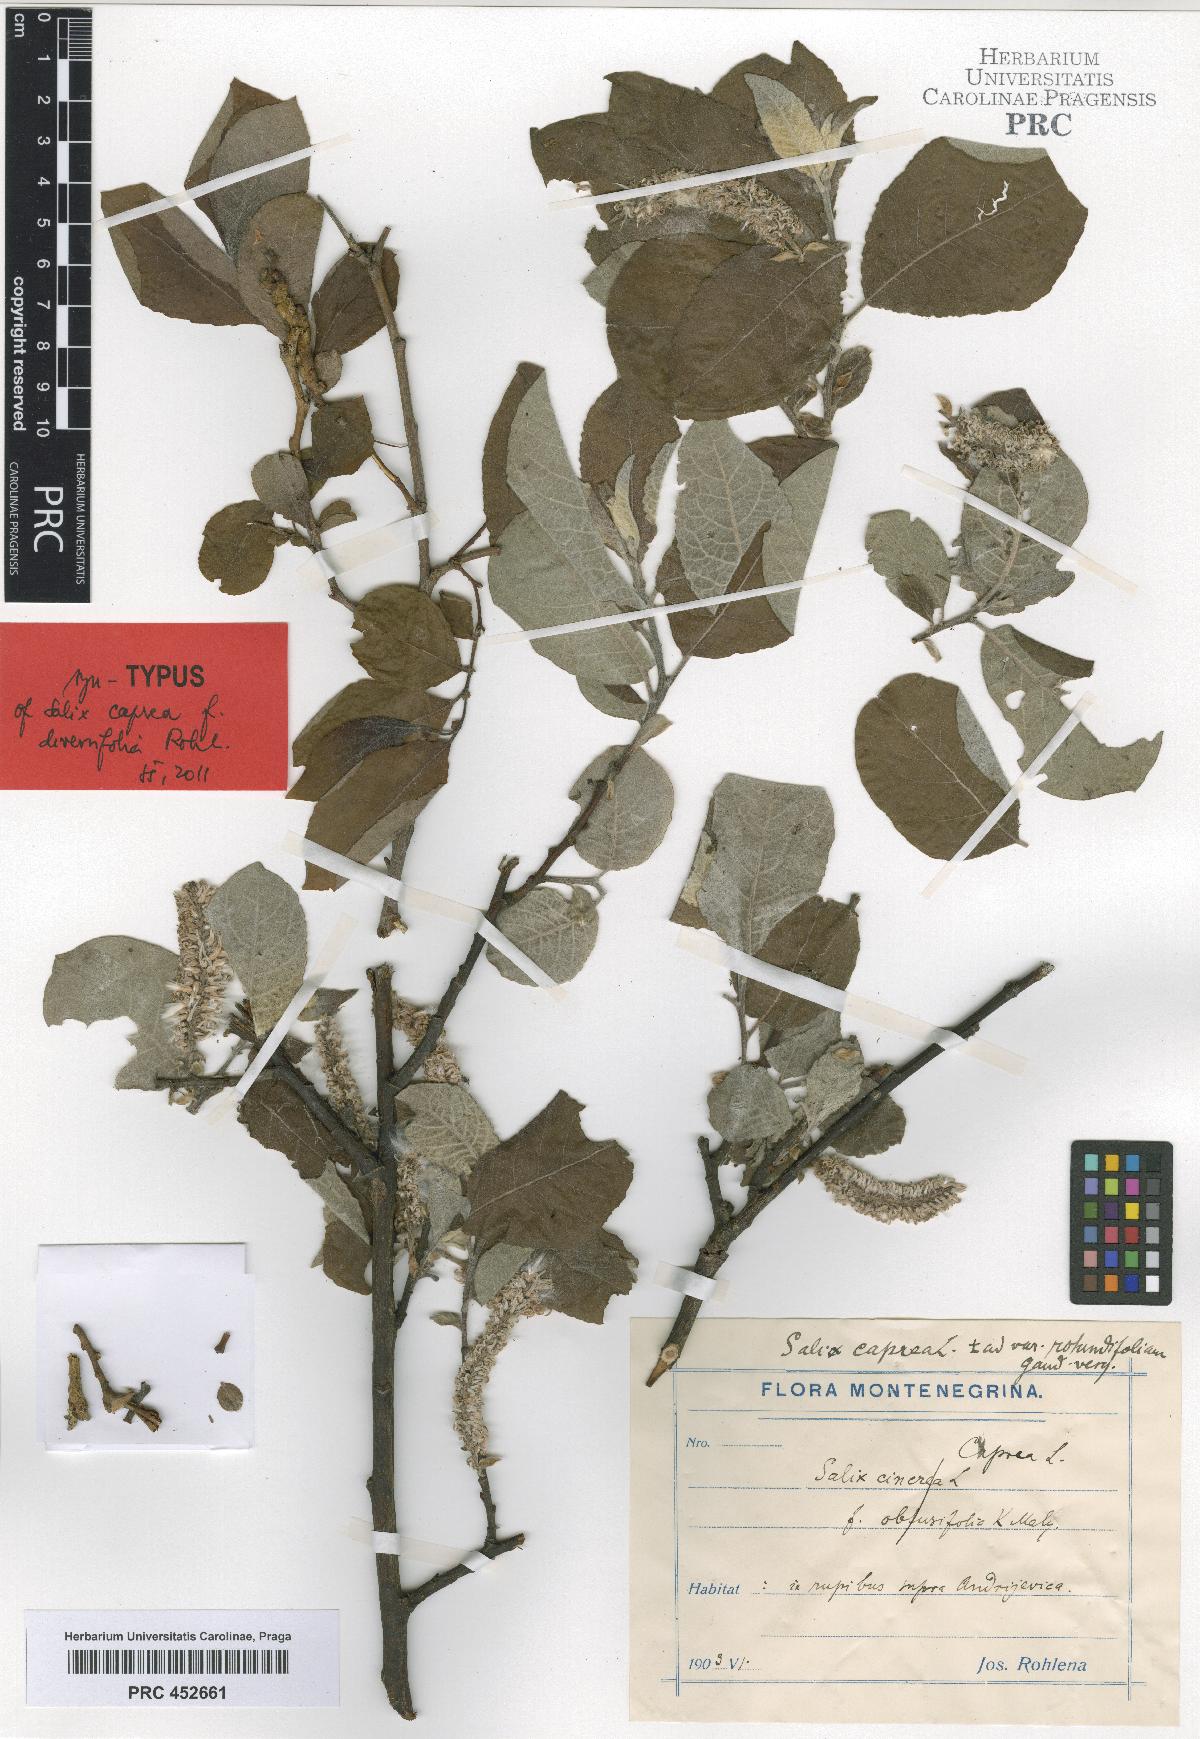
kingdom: Plantae
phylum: Tracheophyta
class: Magnoliopsida
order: Malpighiales
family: Salicaceae
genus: Salix
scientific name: Salix caprea
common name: Goat willow
